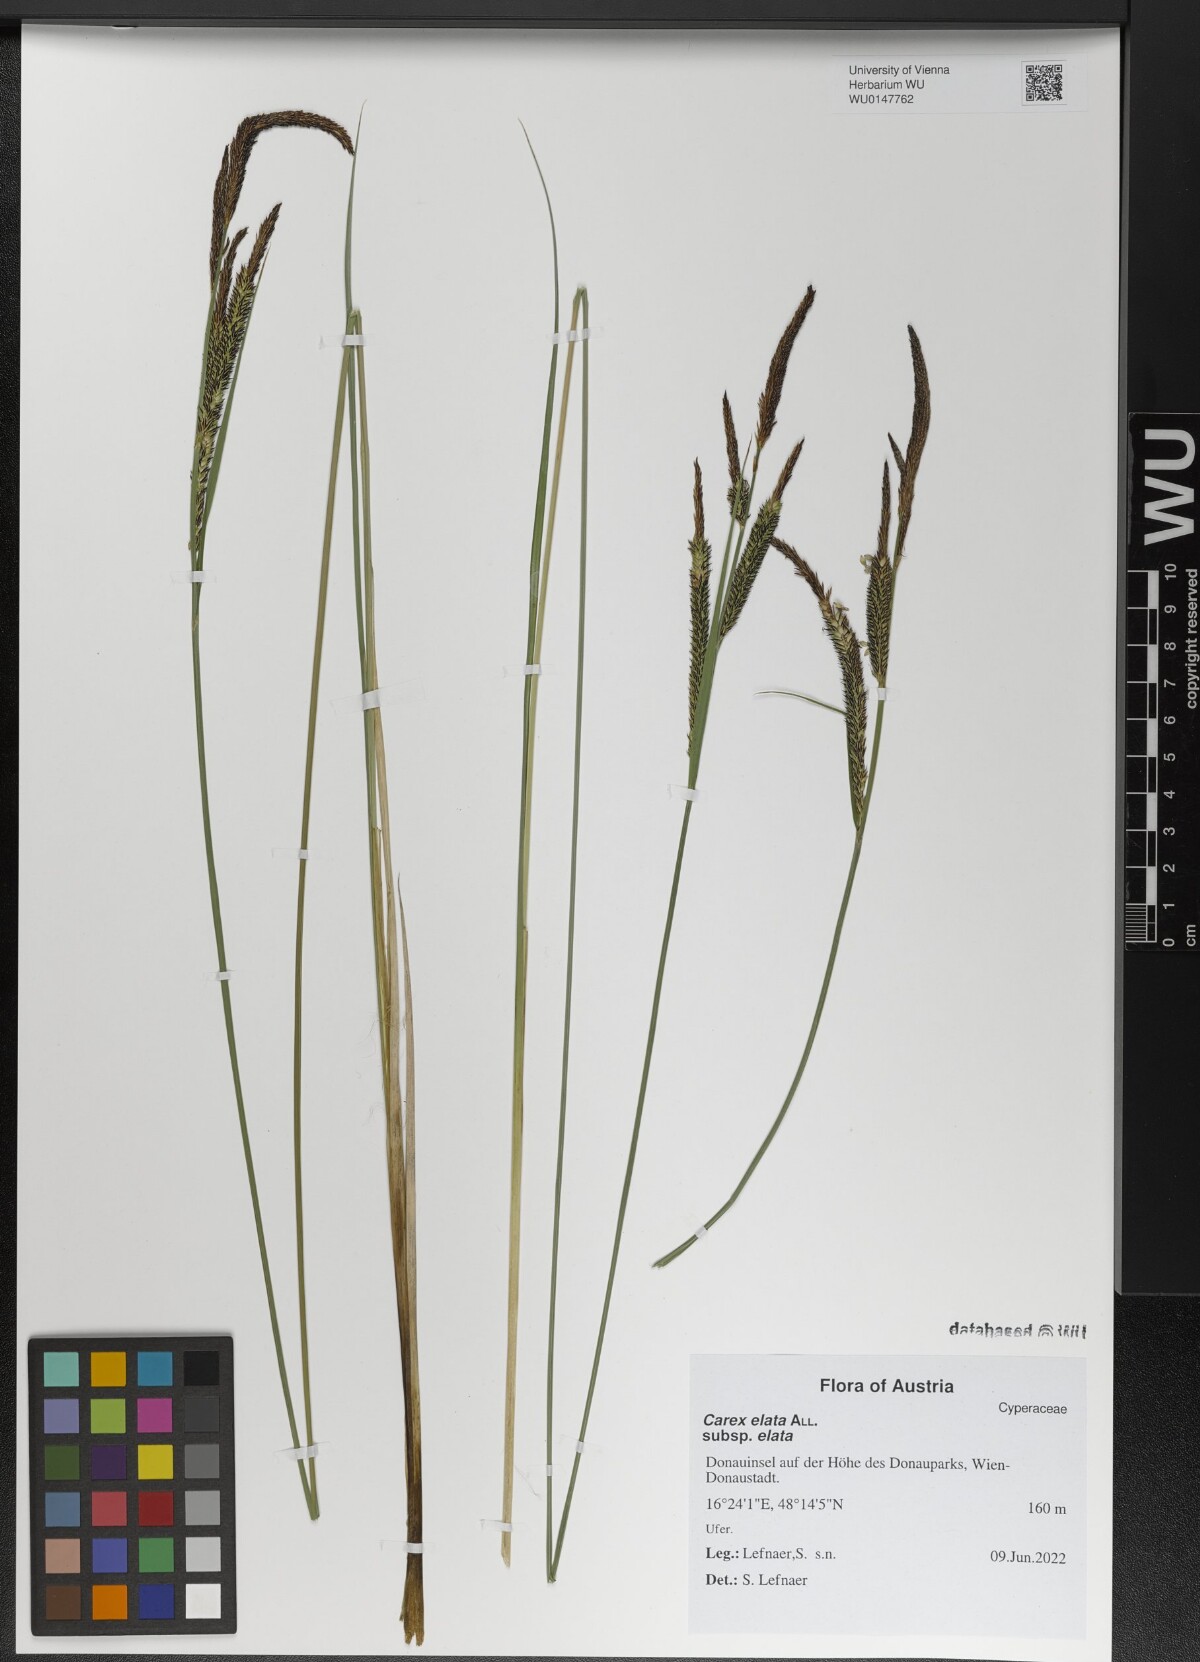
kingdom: Plantae
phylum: Tracheophyta
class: Liliopsida
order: Poales
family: Cyperaceae
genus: Carex
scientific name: Carex elata
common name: Tufted sedge
